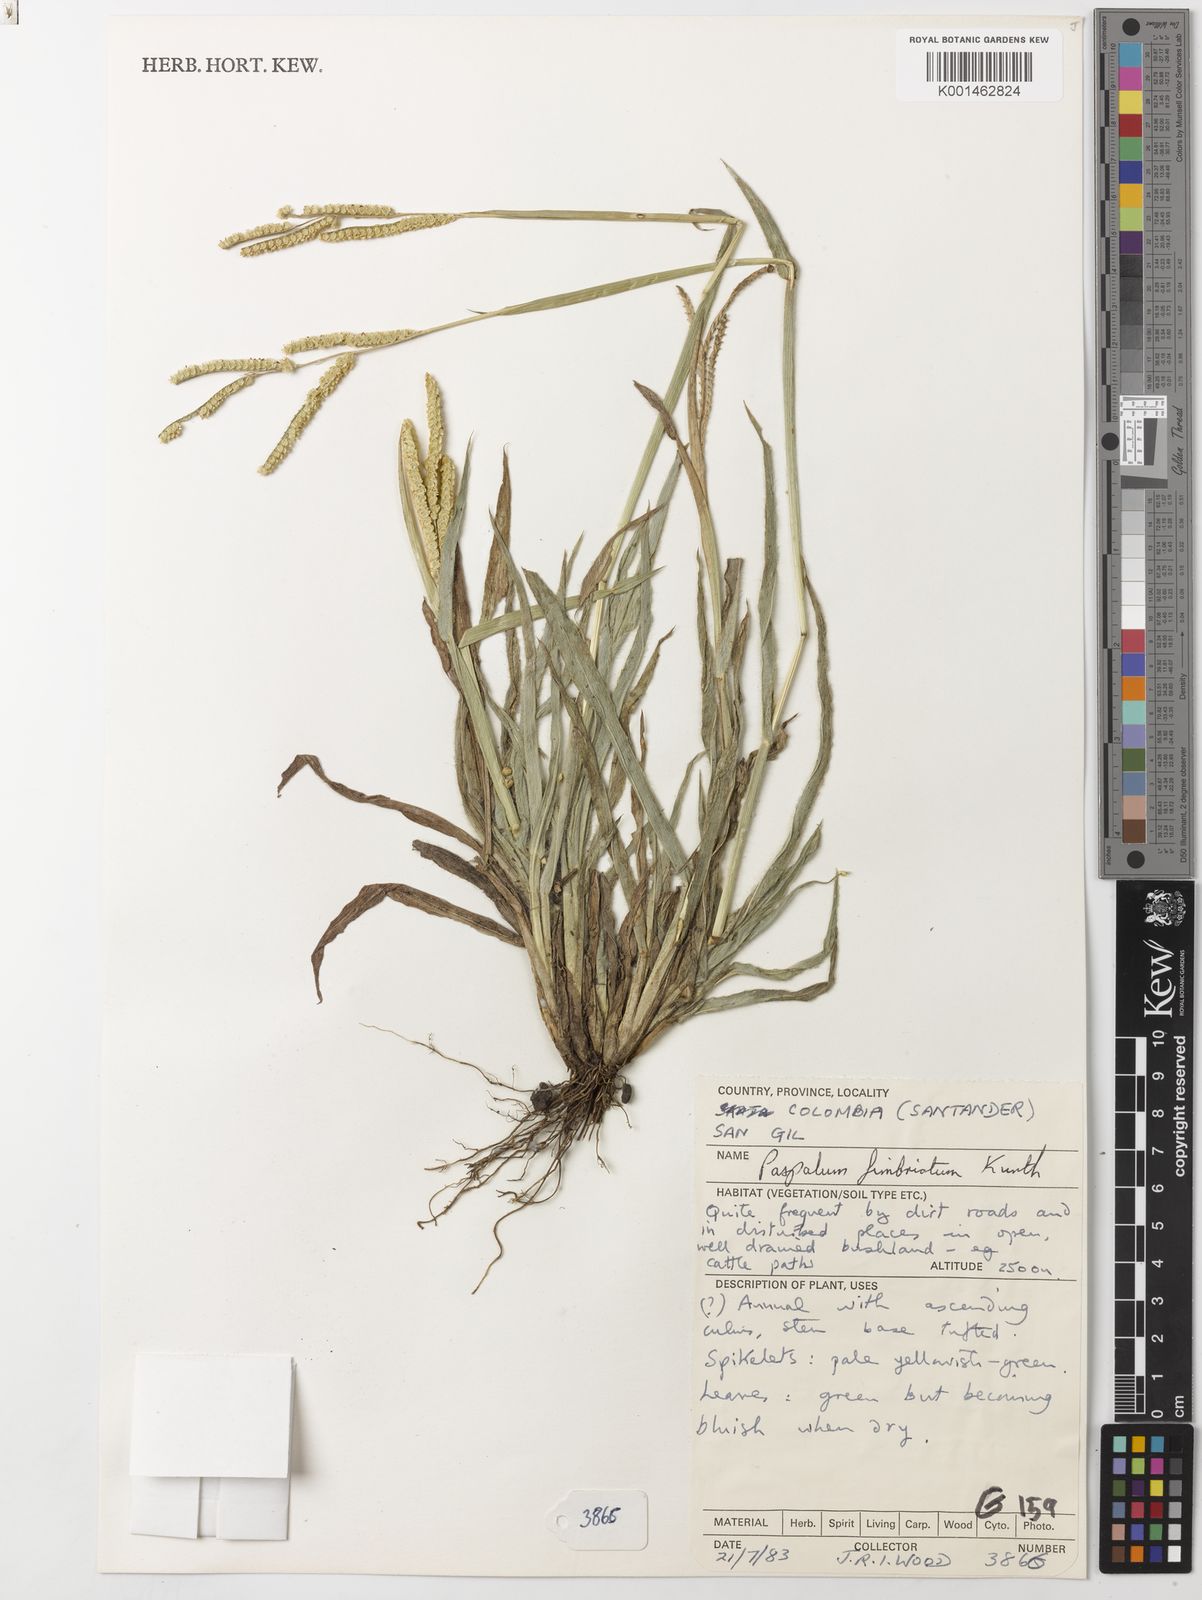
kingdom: Plantae
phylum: Tracheophyta
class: Liliopsida
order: Poales
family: Poaceae
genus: Paspalum
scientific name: Paspalum fimbriatum
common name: Panama crowngrass
